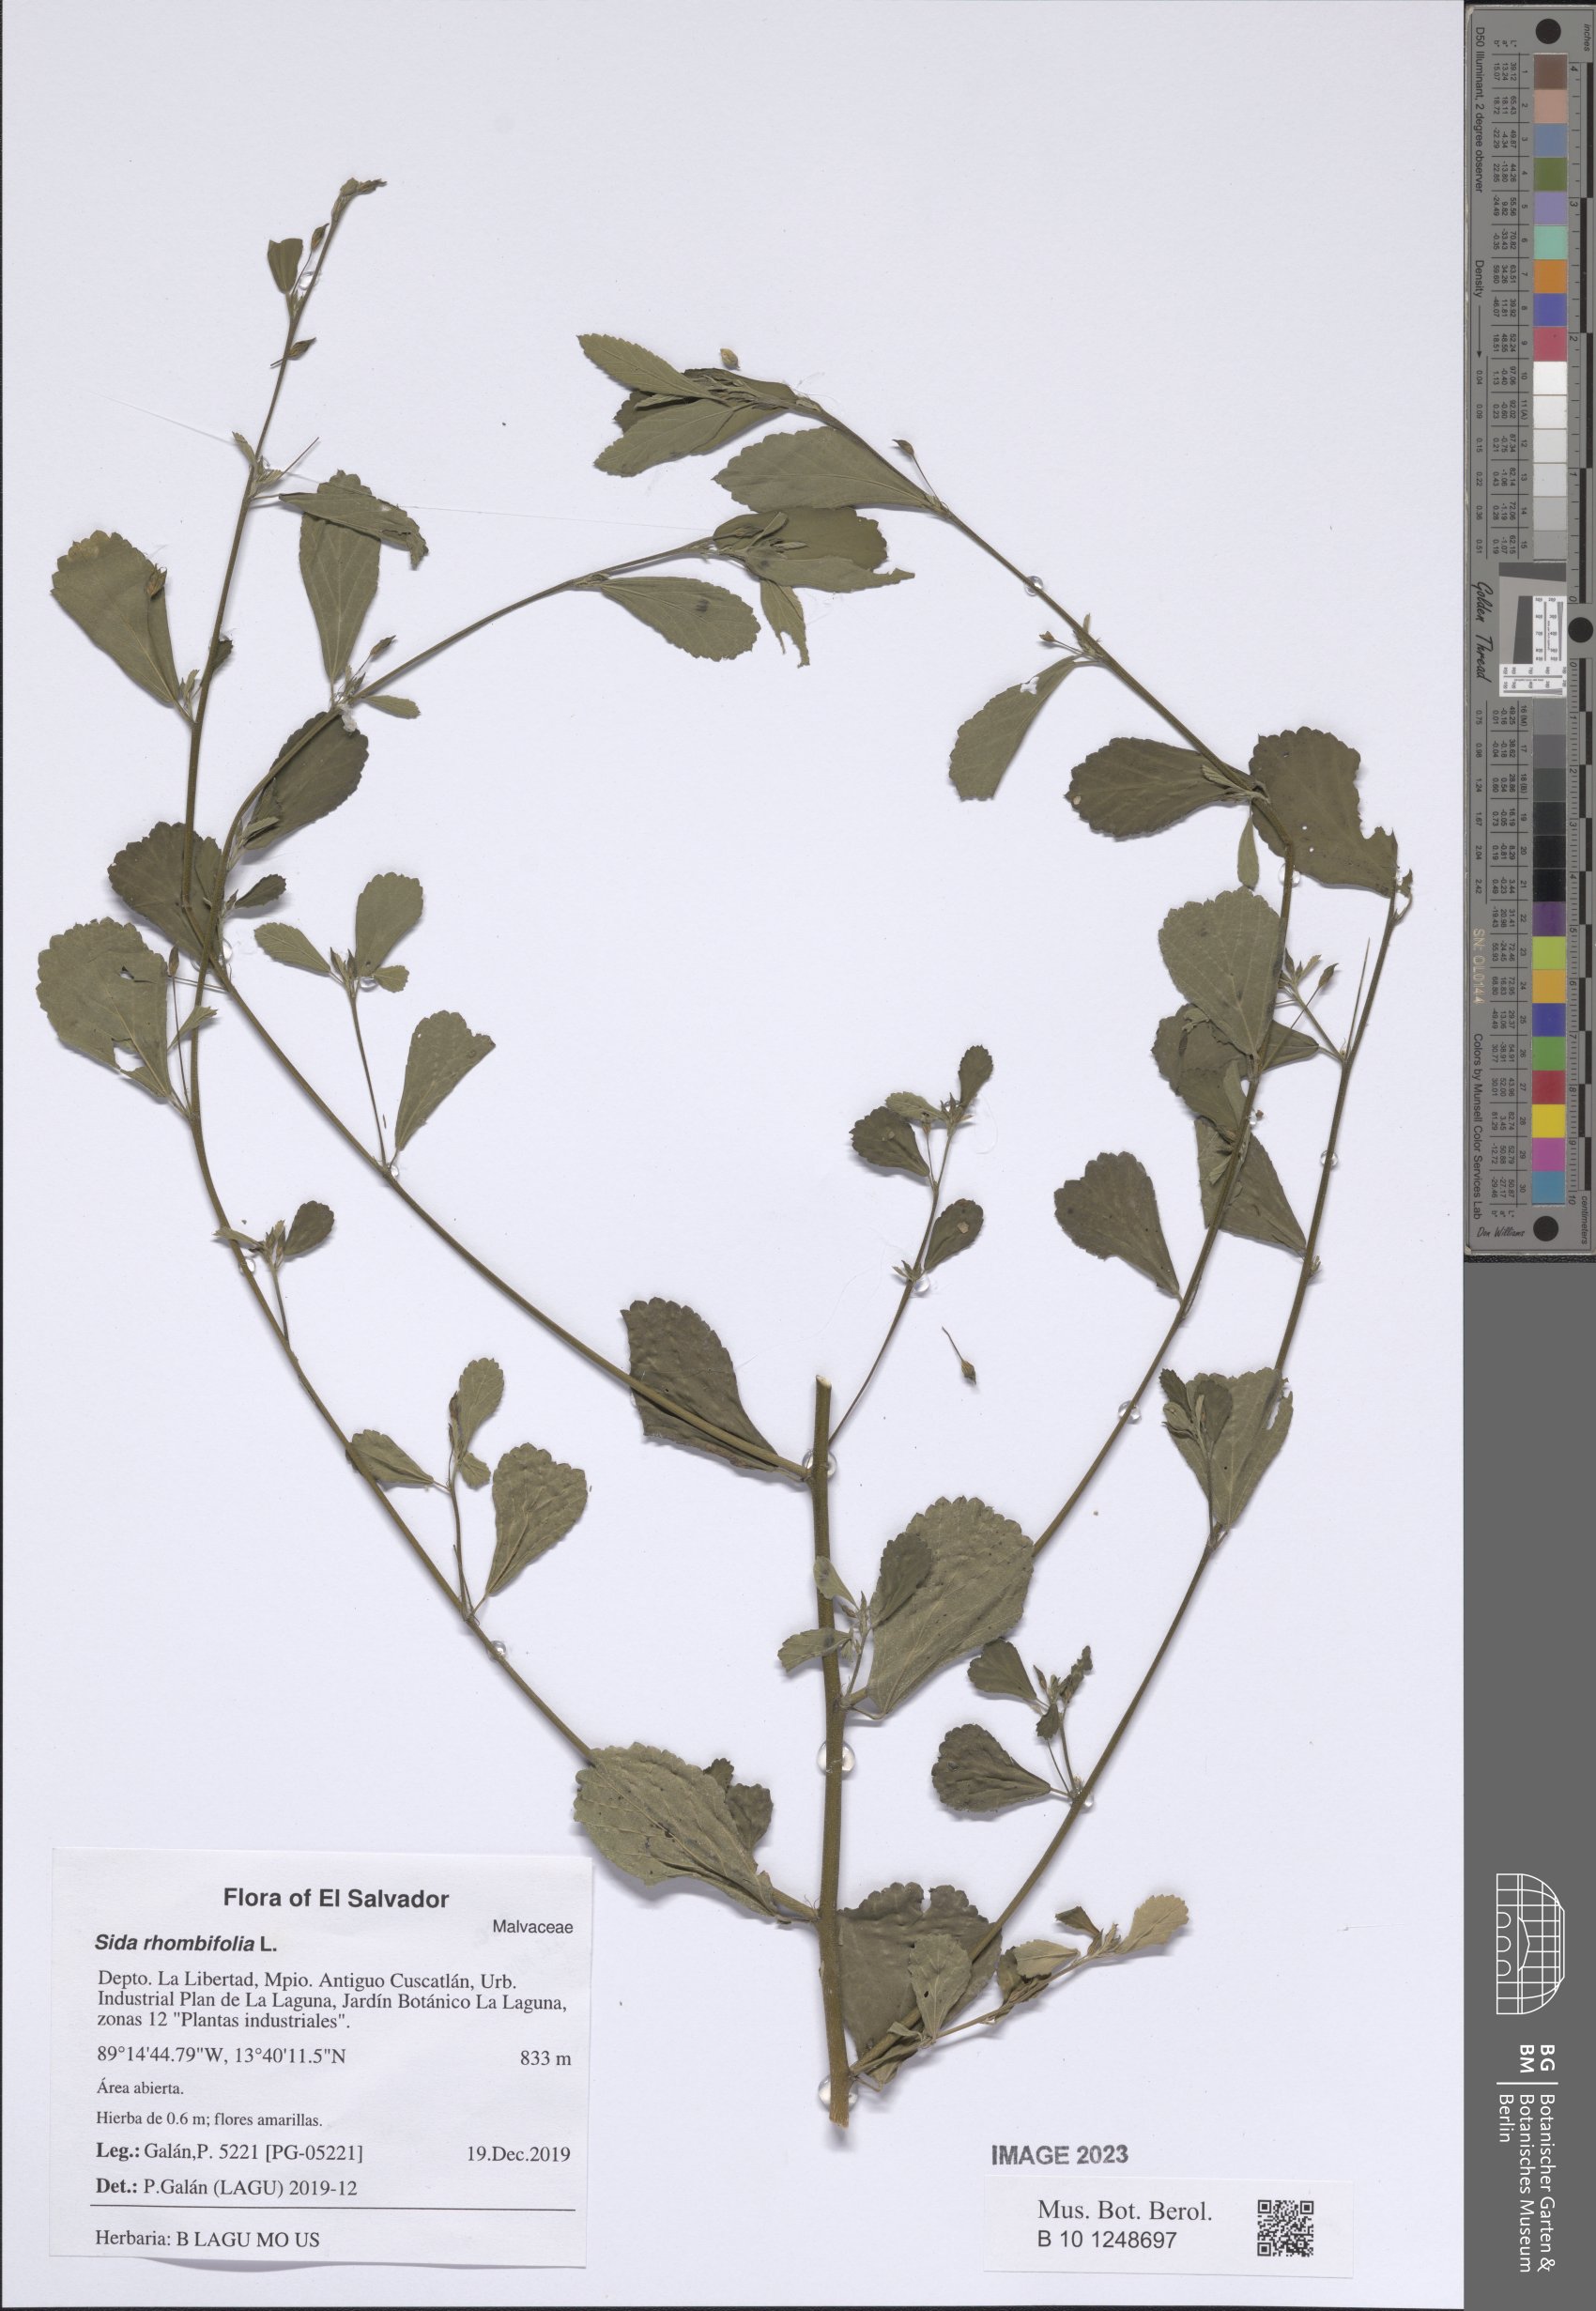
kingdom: Plantae
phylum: Tracheophyta
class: Magnoliopsida
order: Malvales
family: Malvaceae
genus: Sida
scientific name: Sida rhombifolia
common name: Queensland-hemp
